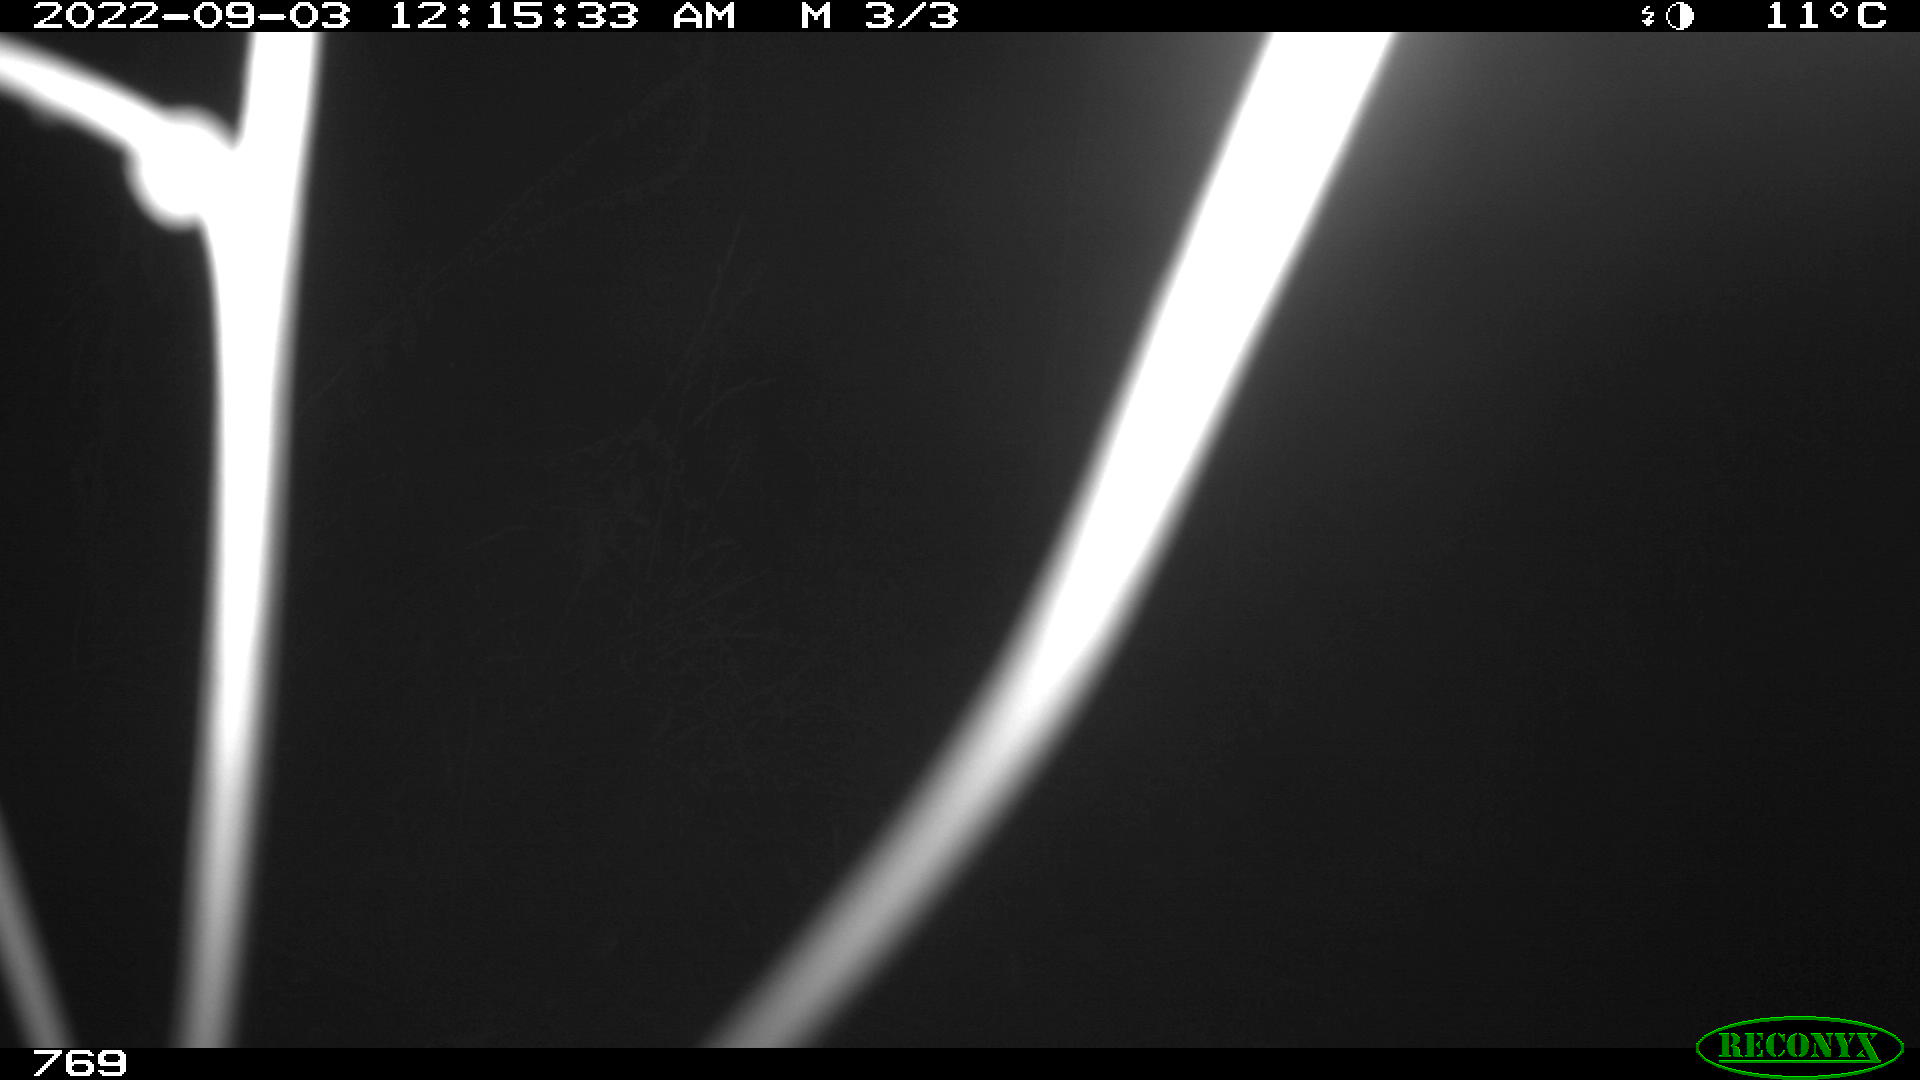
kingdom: Animalia
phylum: Chordata
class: Mammalia
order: Artiodactyla
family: Suidae
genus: Sus
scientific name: Sus scrofa
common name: Wild boar
